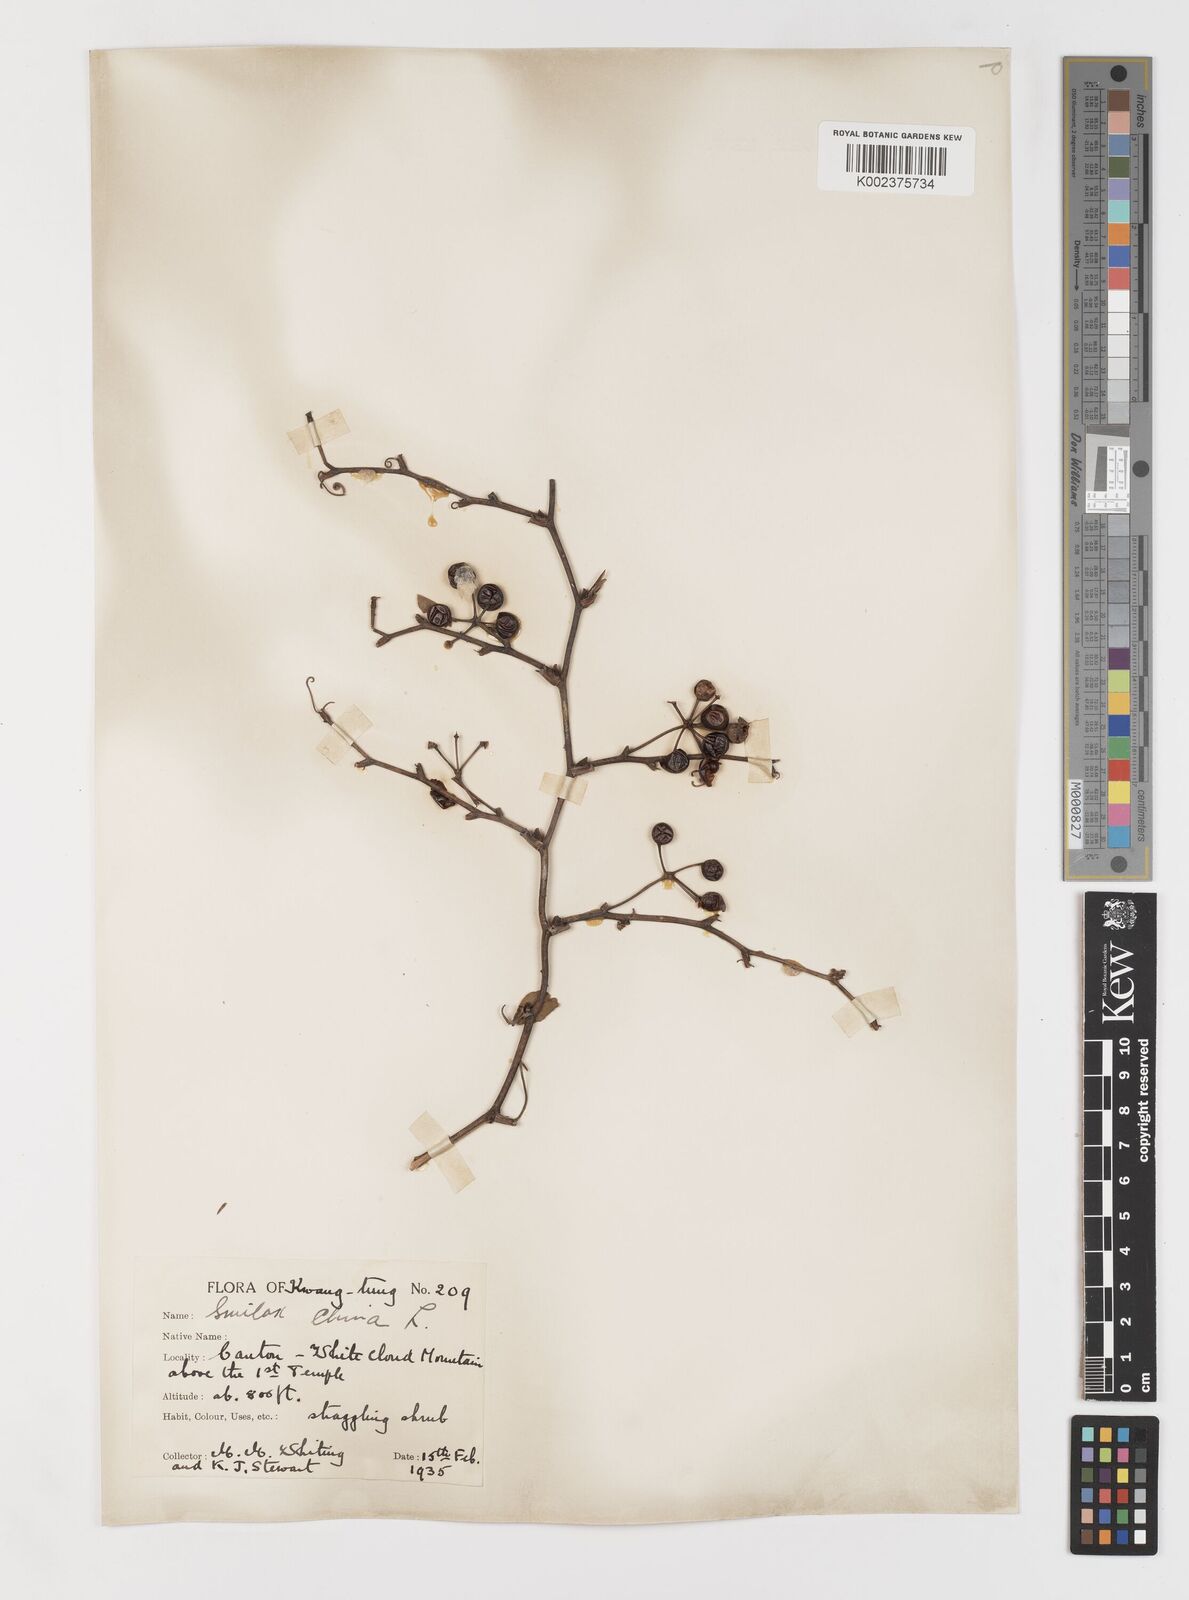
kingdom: Plantae
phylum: Tracheophyta
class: Liliopsida
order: Liliales
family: Smilacaceae
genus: Smilax
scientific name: Smilax china
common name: Chinaroot
